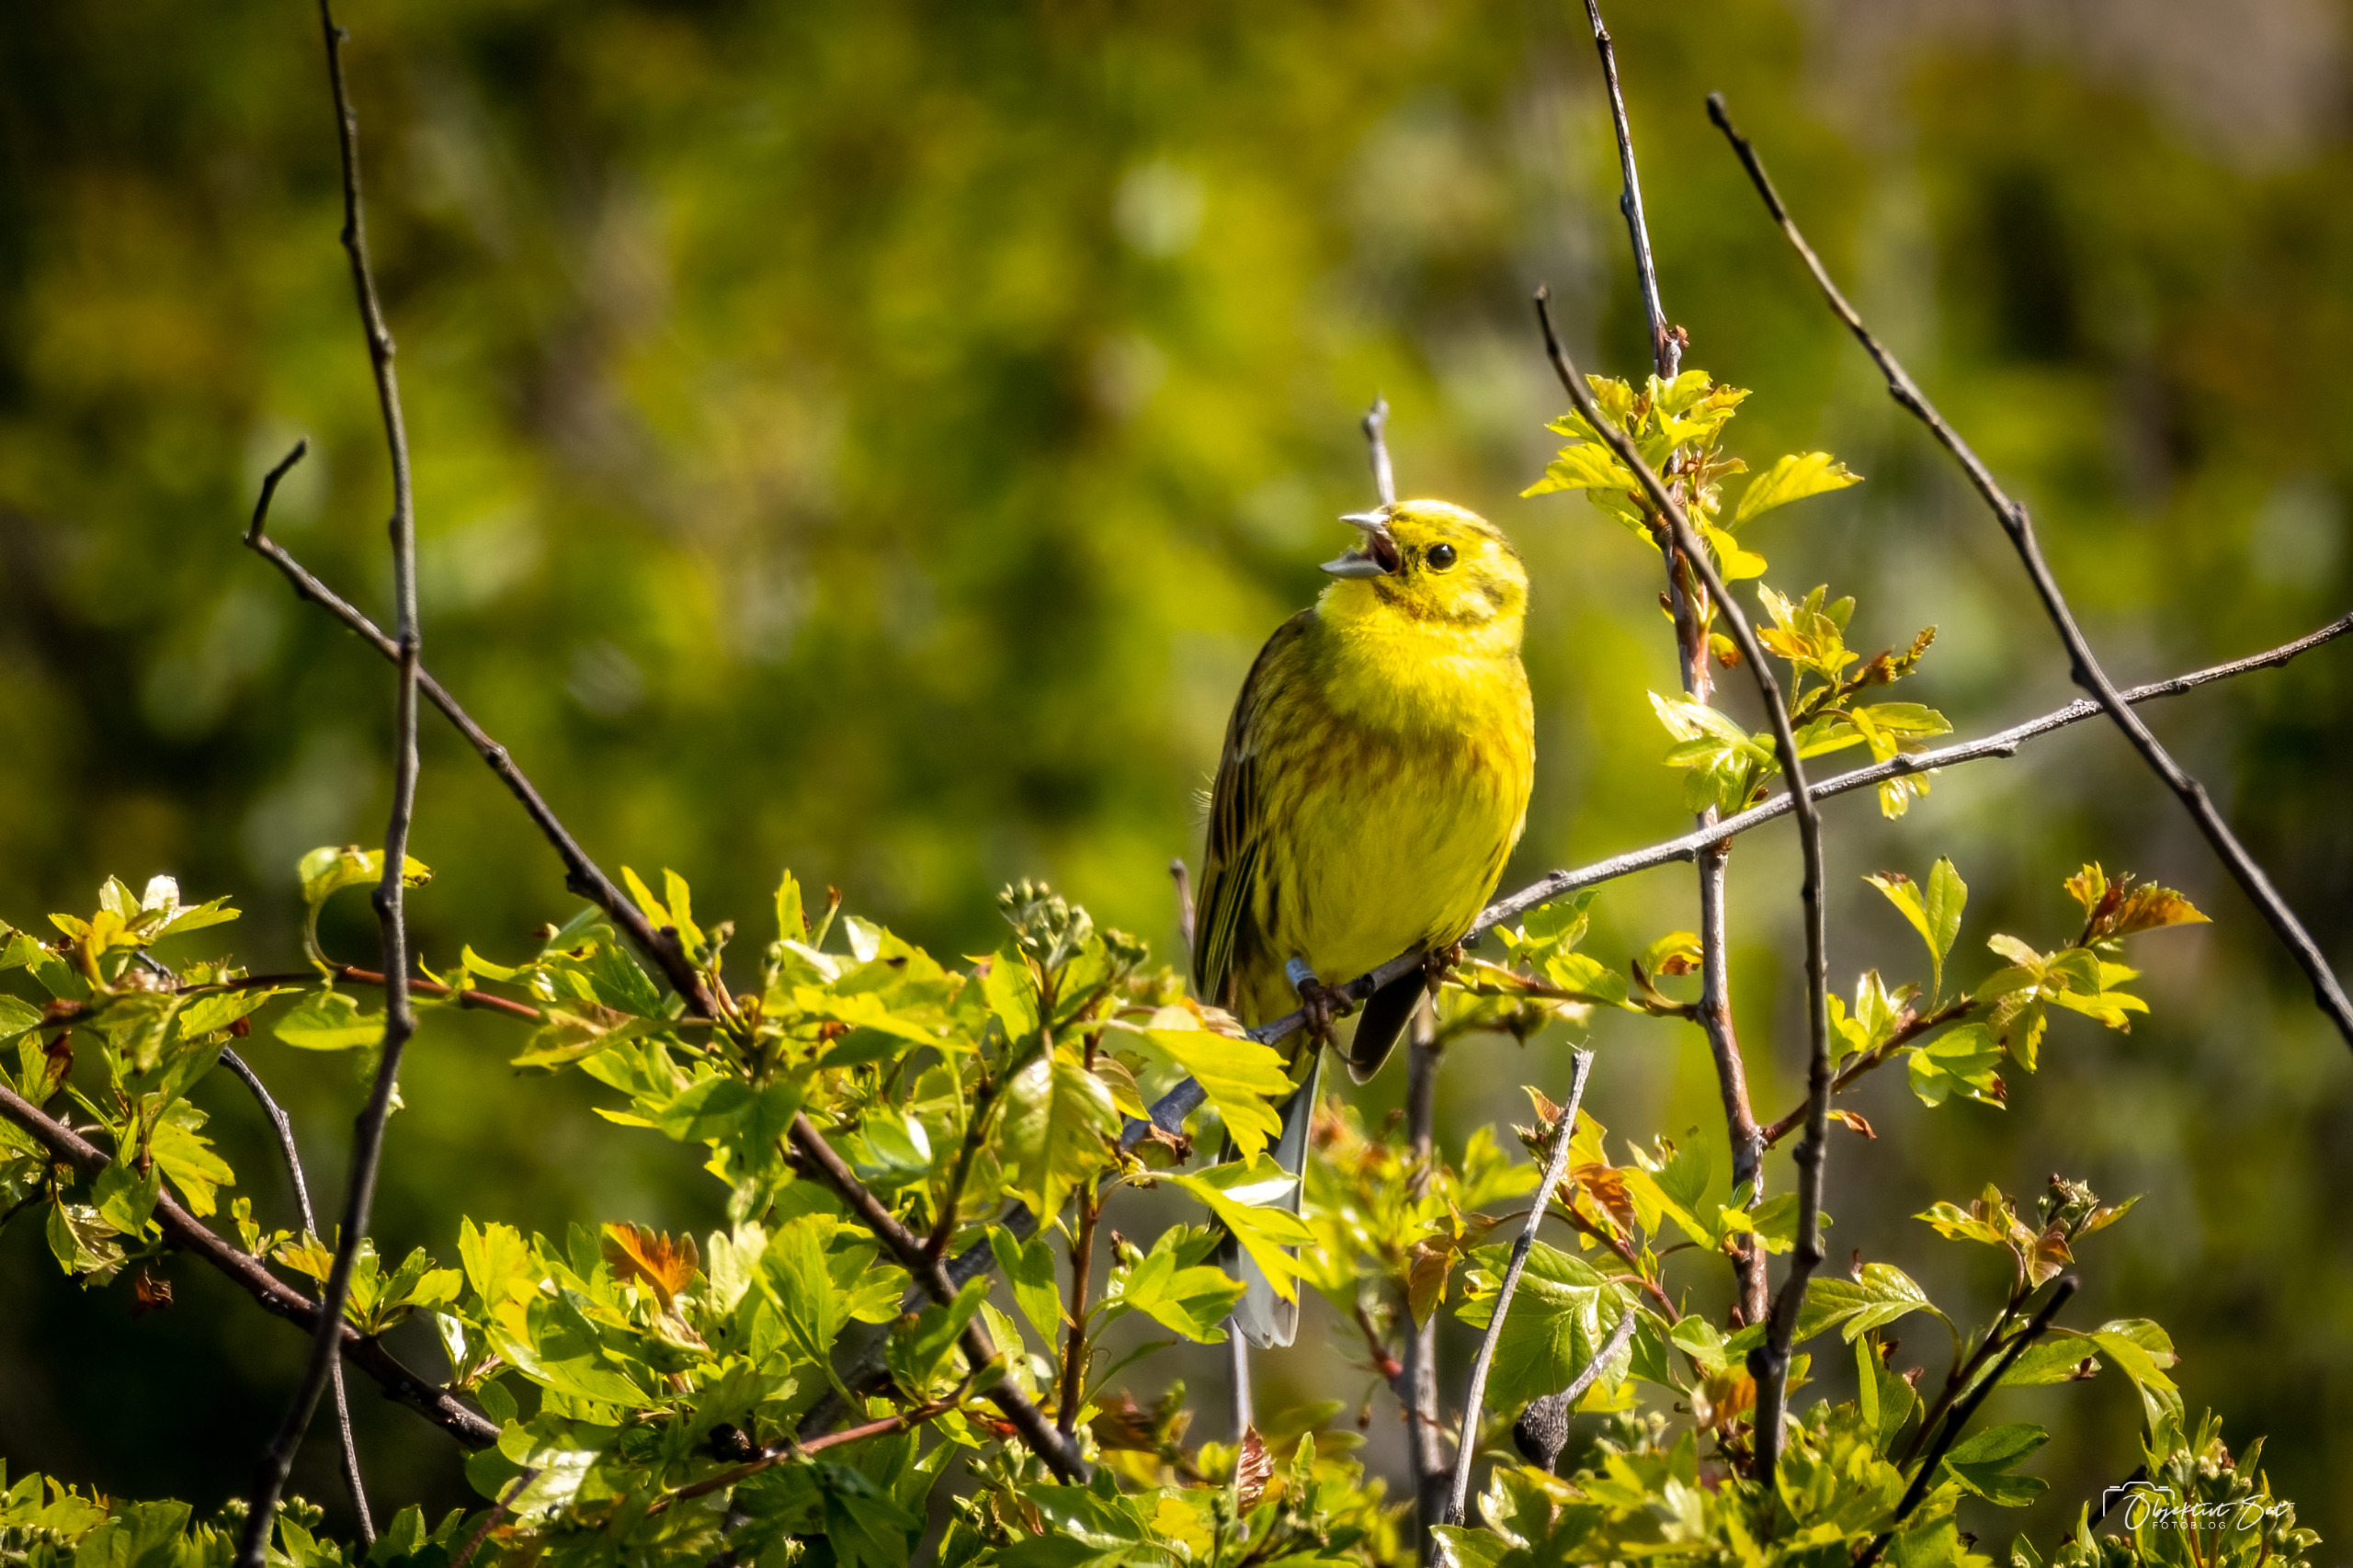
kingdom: Animalia
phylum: Chordata
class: Aves
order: Passeriformes
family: Emberizidae
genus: Emberiza
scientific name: Emberiza citrinella
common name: Gulspurv
